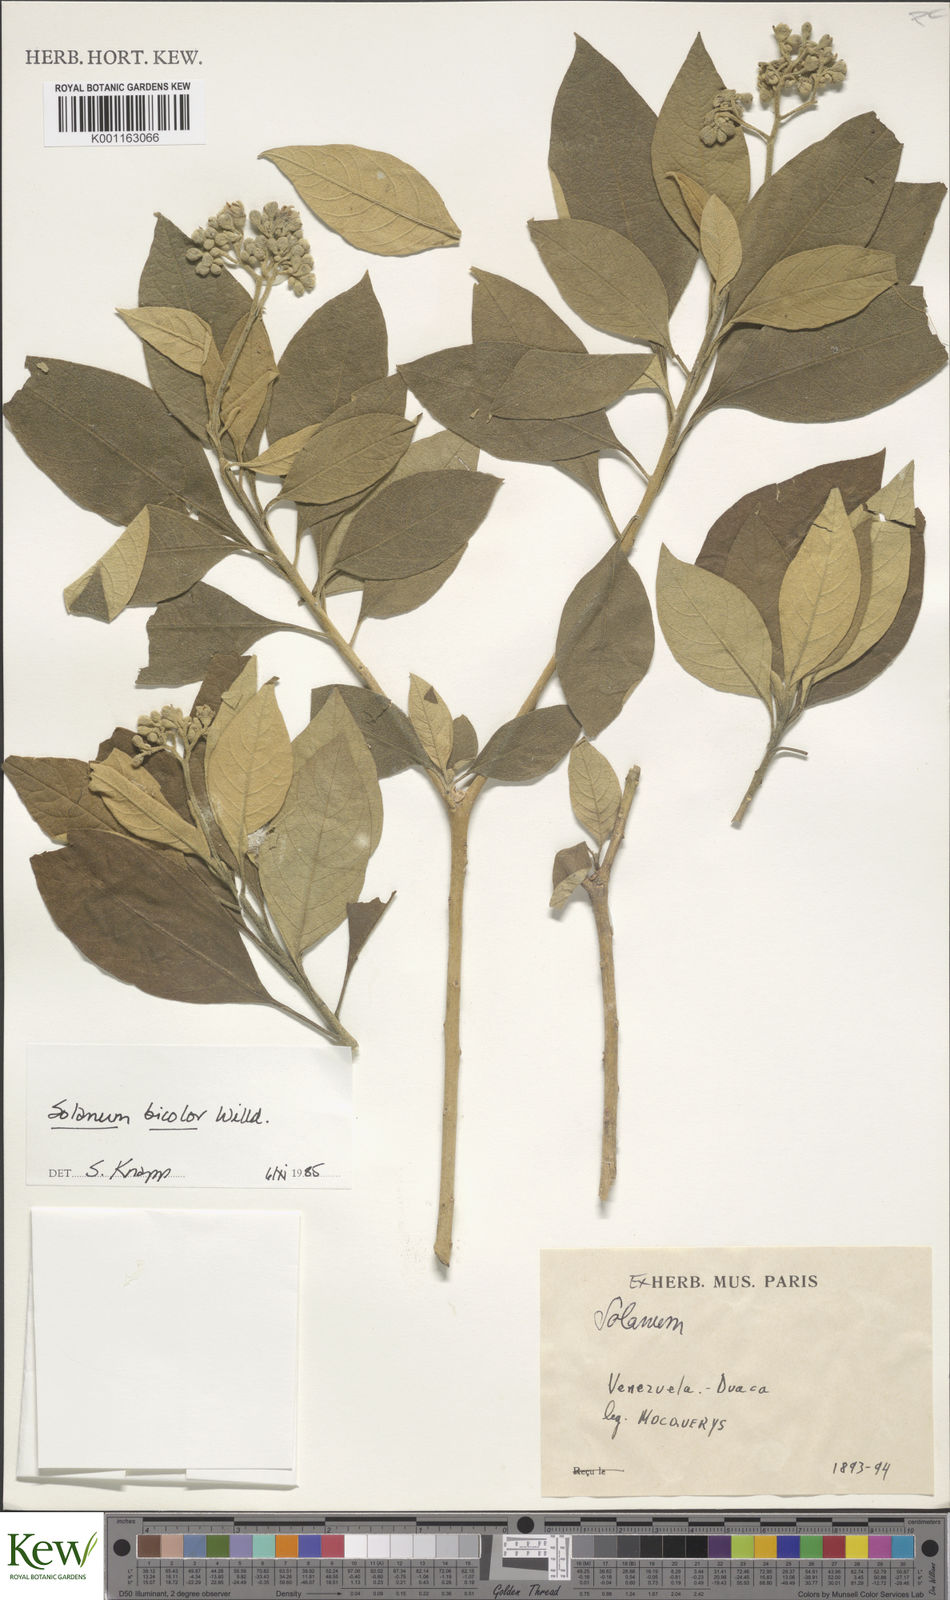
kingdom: Plantae
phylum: Tracheophyta
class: Magnoliopsida
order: Solanales
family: Solanaceae
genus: Solanum
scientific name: Solanum bicolor
